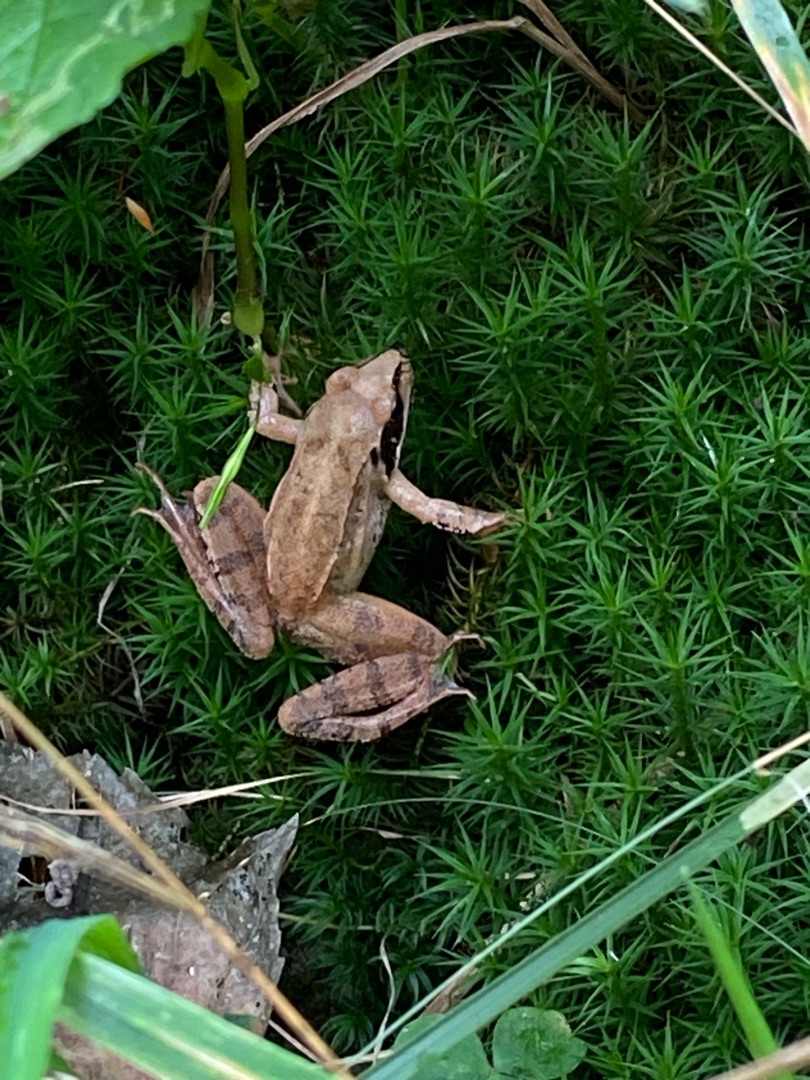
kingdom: Animalia
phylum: Chordata
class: Amphibia
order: Anura
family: Ranidae
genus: Rana
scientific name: Rana dalmatina
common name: Springfrø
